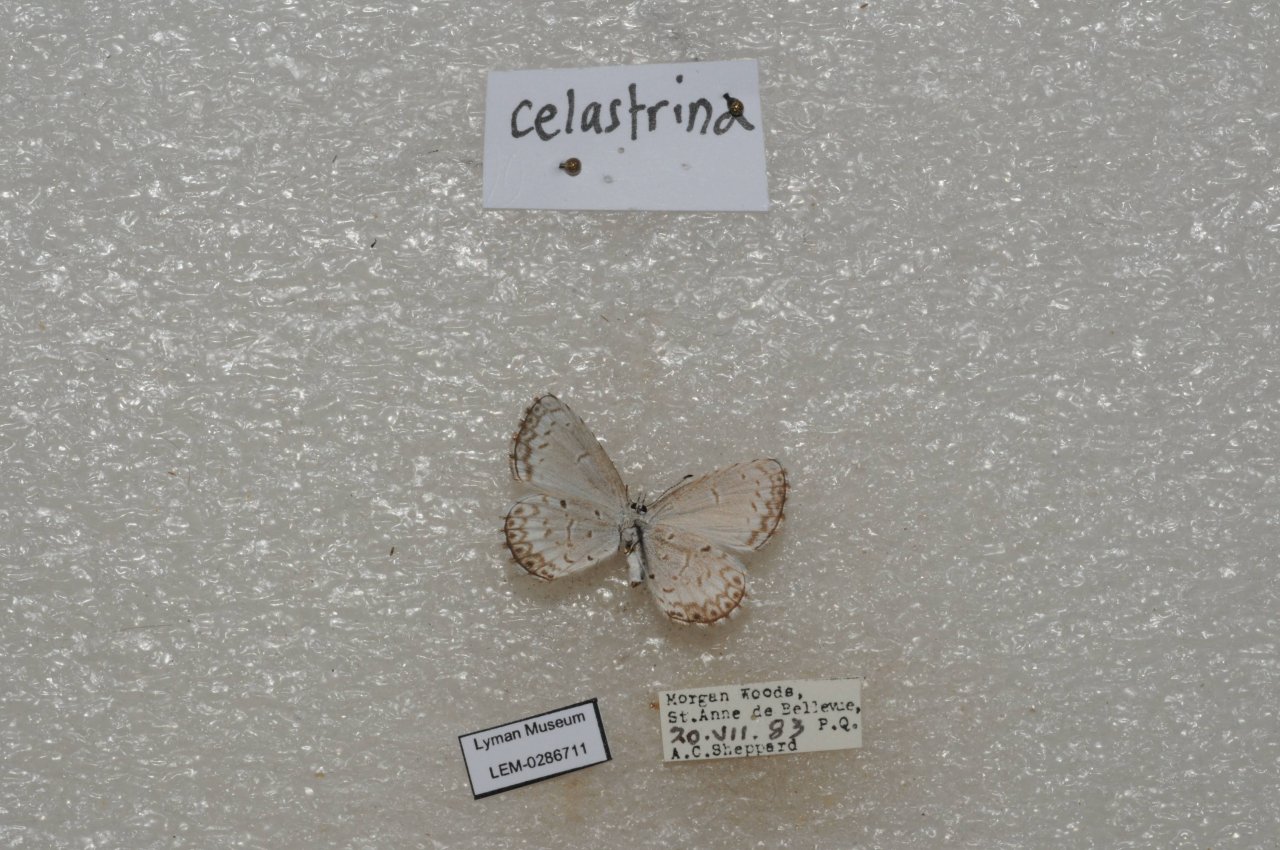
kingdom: Animalia
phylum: Arthropoda
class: Insecta
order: Lepidoptera
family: Lycaenidae
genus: Celastrina
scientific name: Celastrina lucia
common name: Northern Spring Azure
